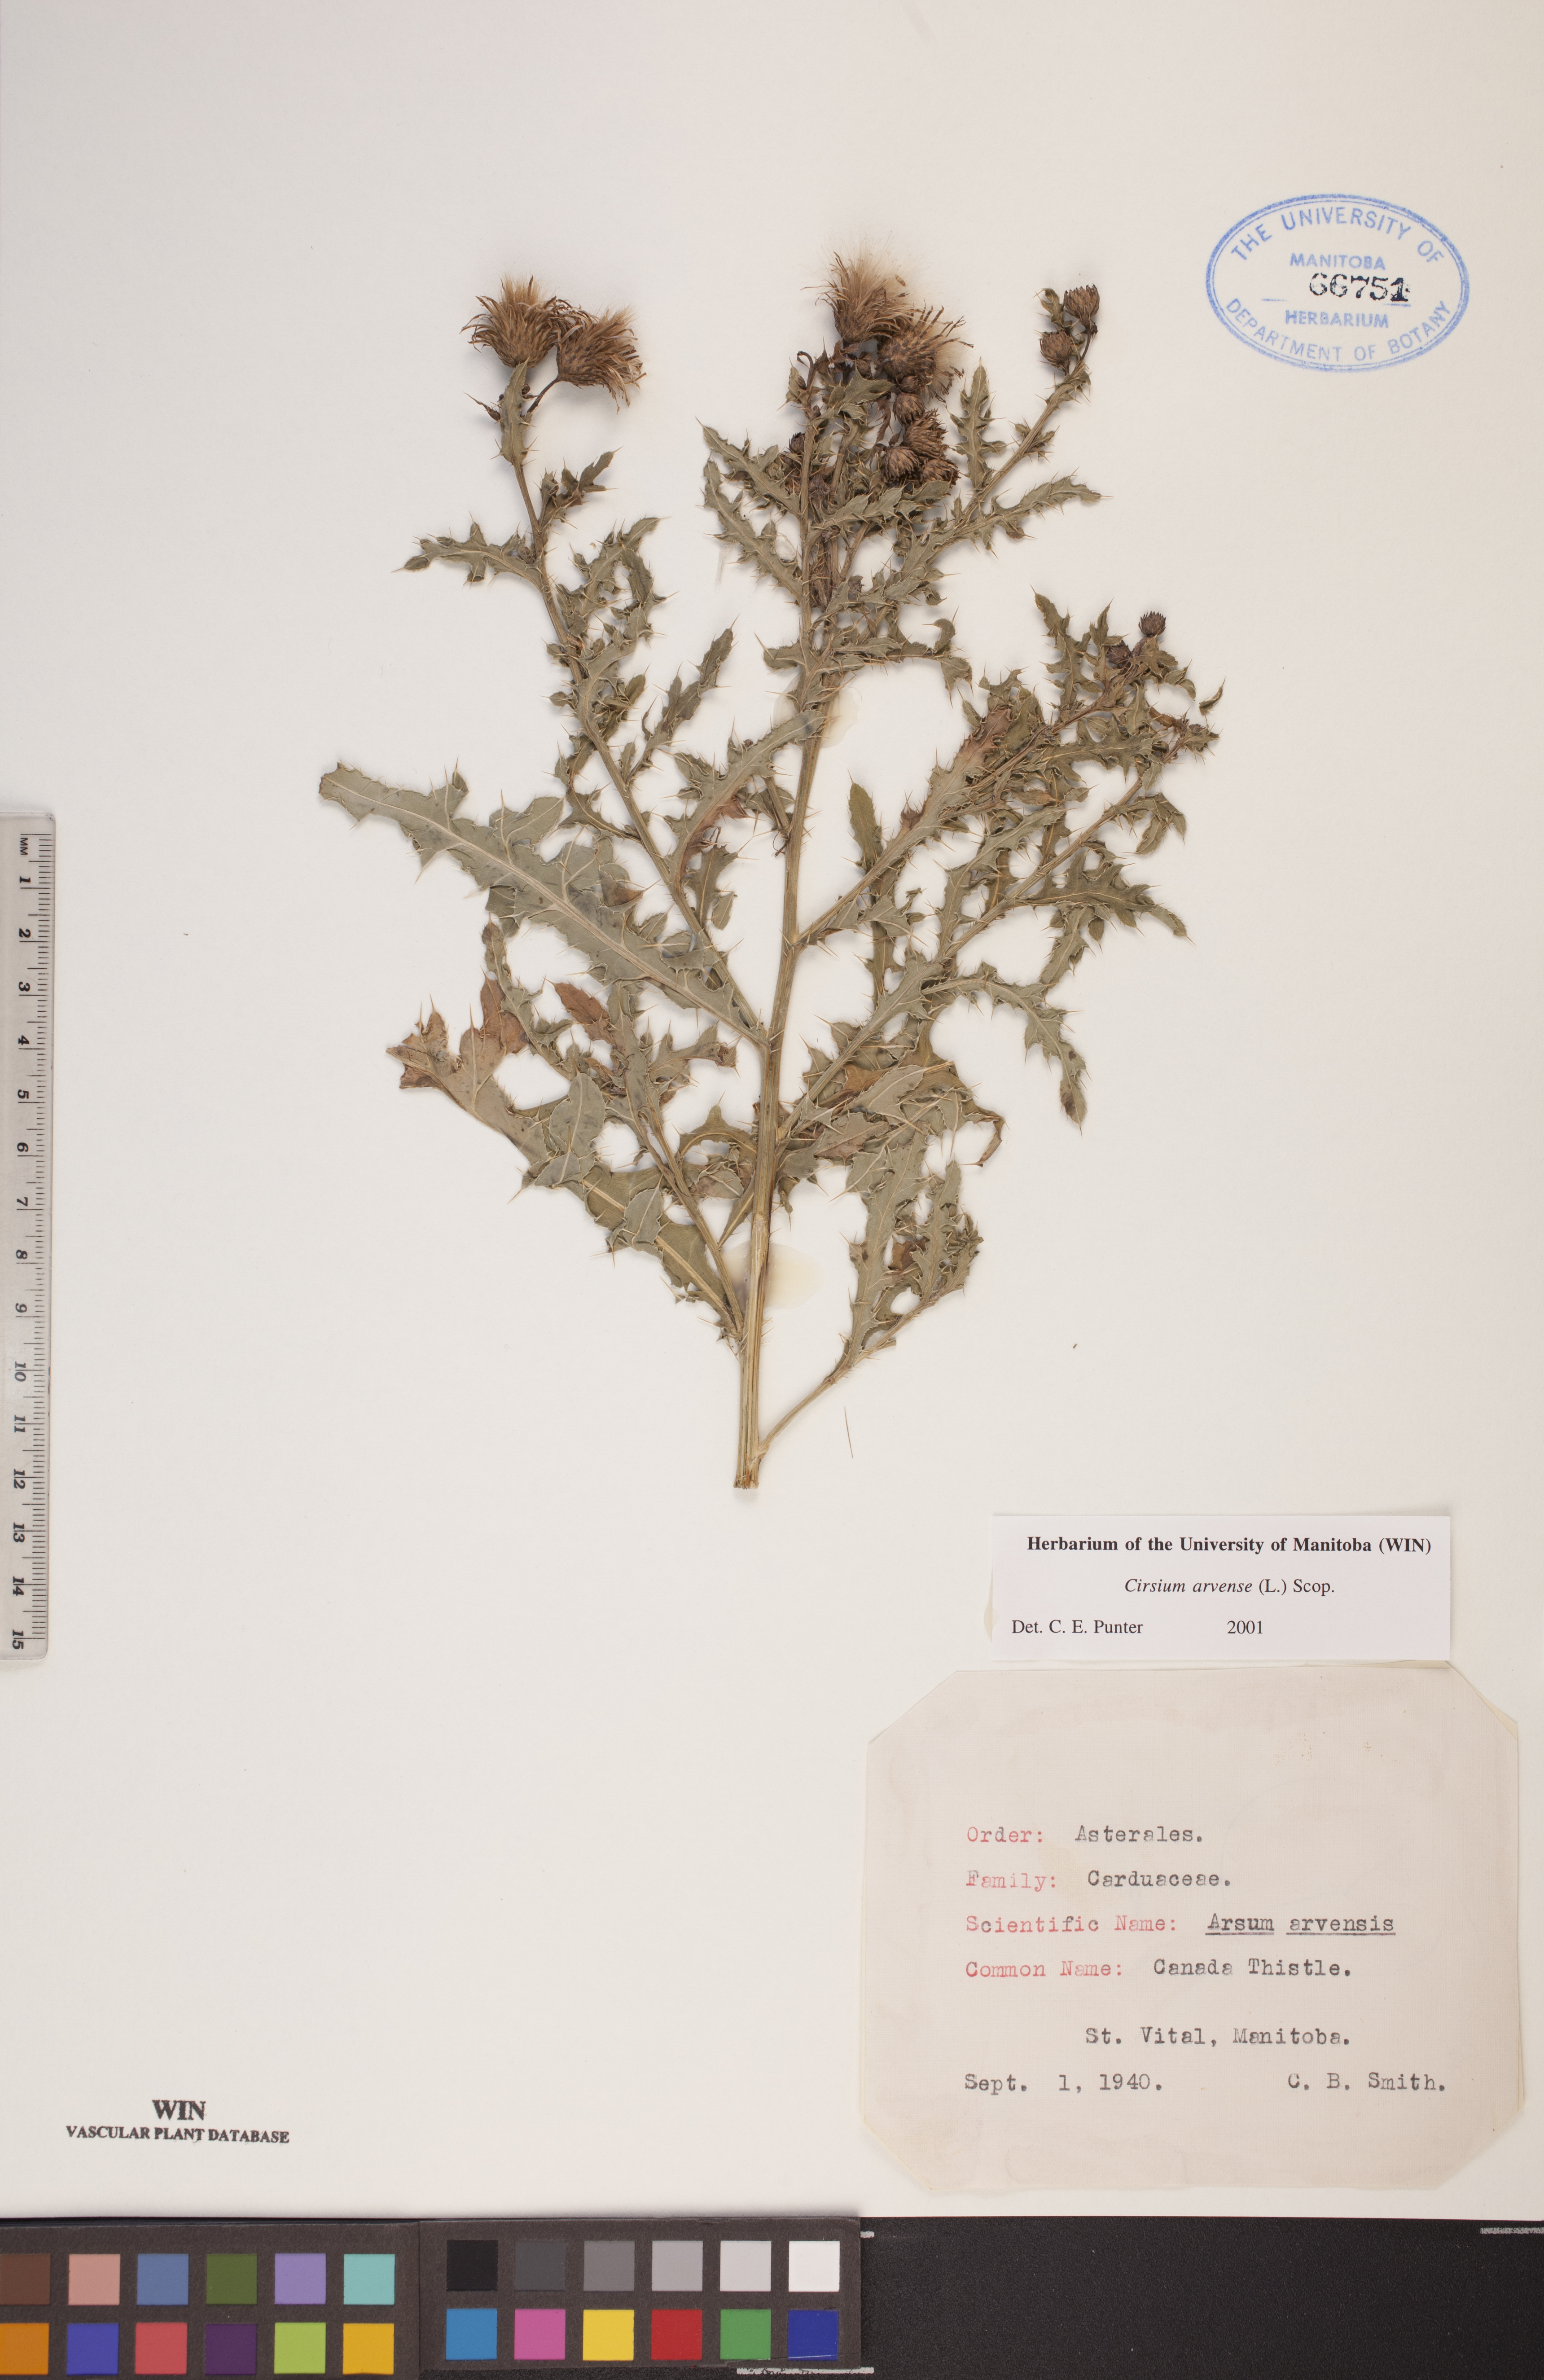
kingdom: Plantae
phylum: Tracheophyta
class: Magnoliopsida
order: Asterales
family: Asteraceae
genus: Cirsium
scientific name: Cirsium arvense
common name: Creeping thistle
